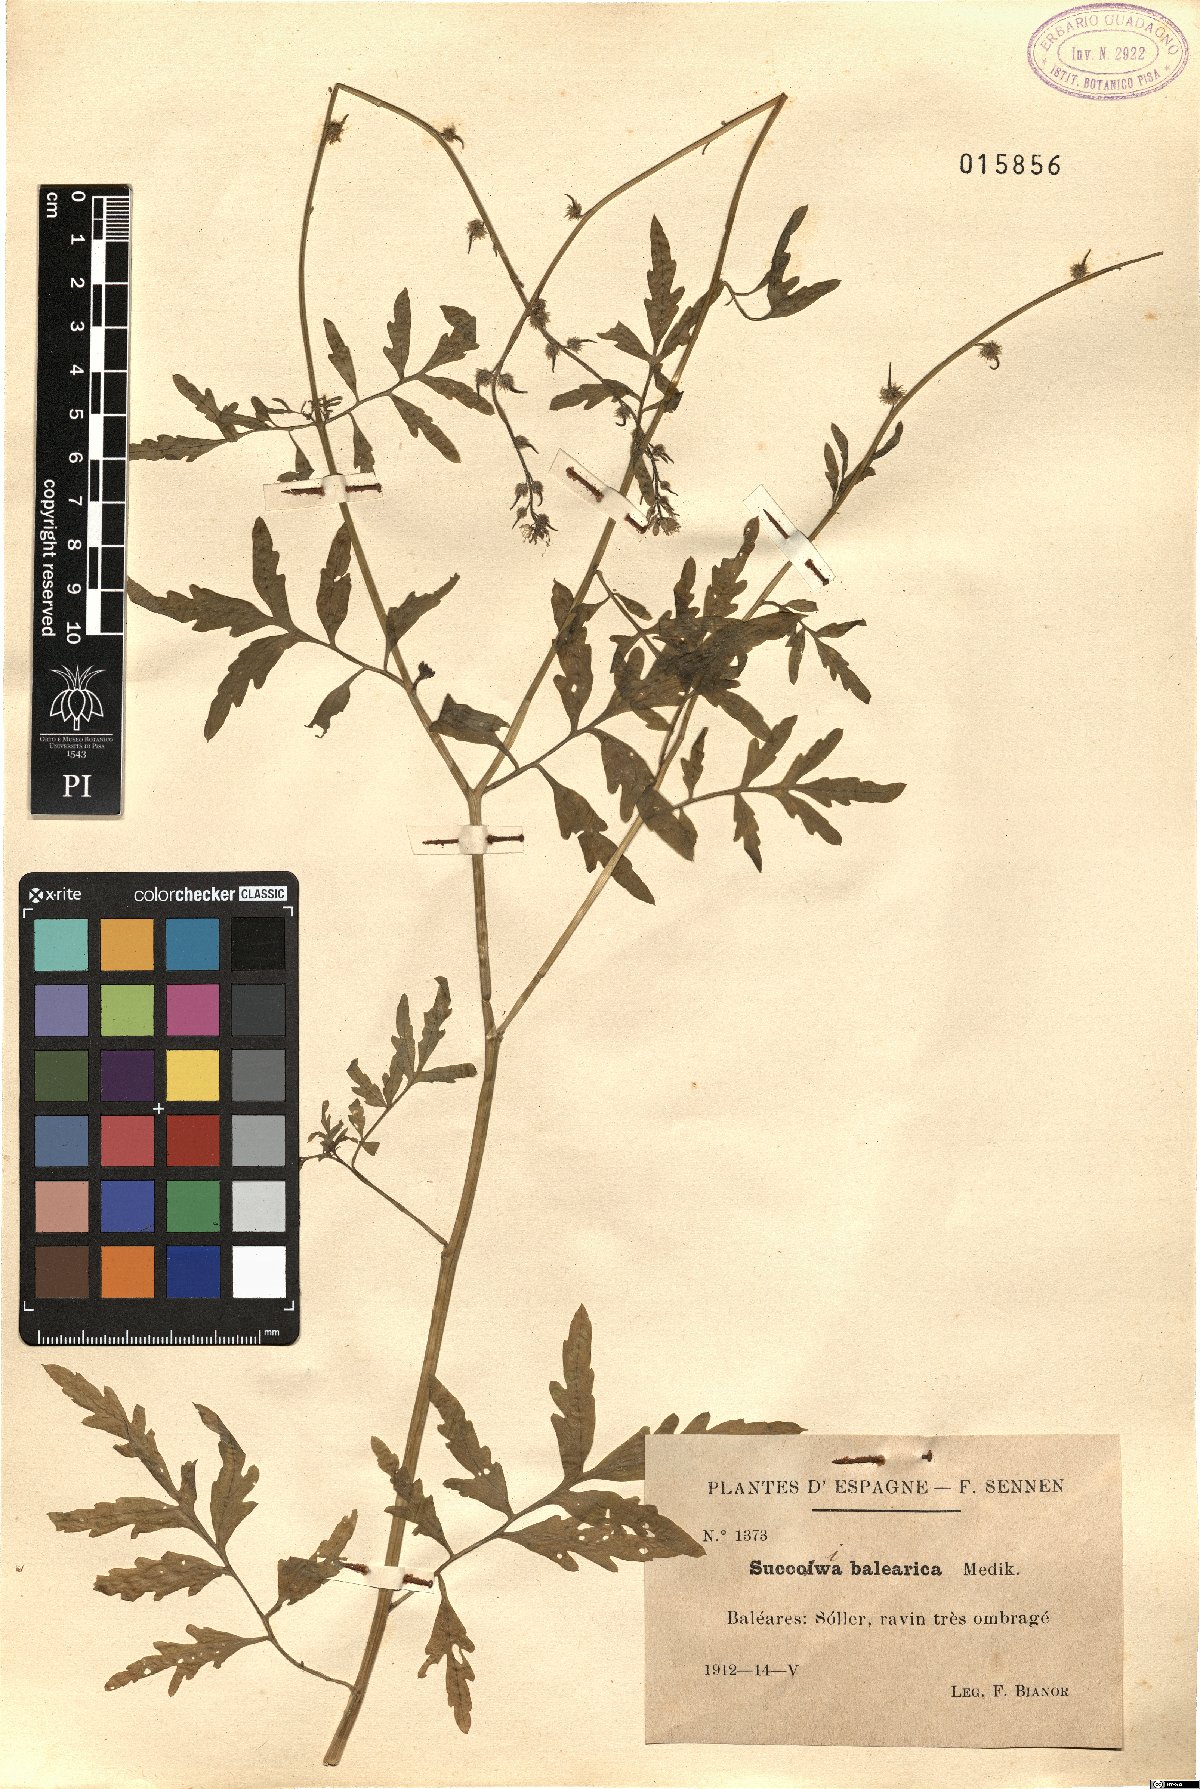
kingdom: Plantae
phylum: Tracheophyta
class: Magnoliopsida
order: Brassicales
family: Brassicaceae
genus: Succowia
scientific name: Succowia balearica
